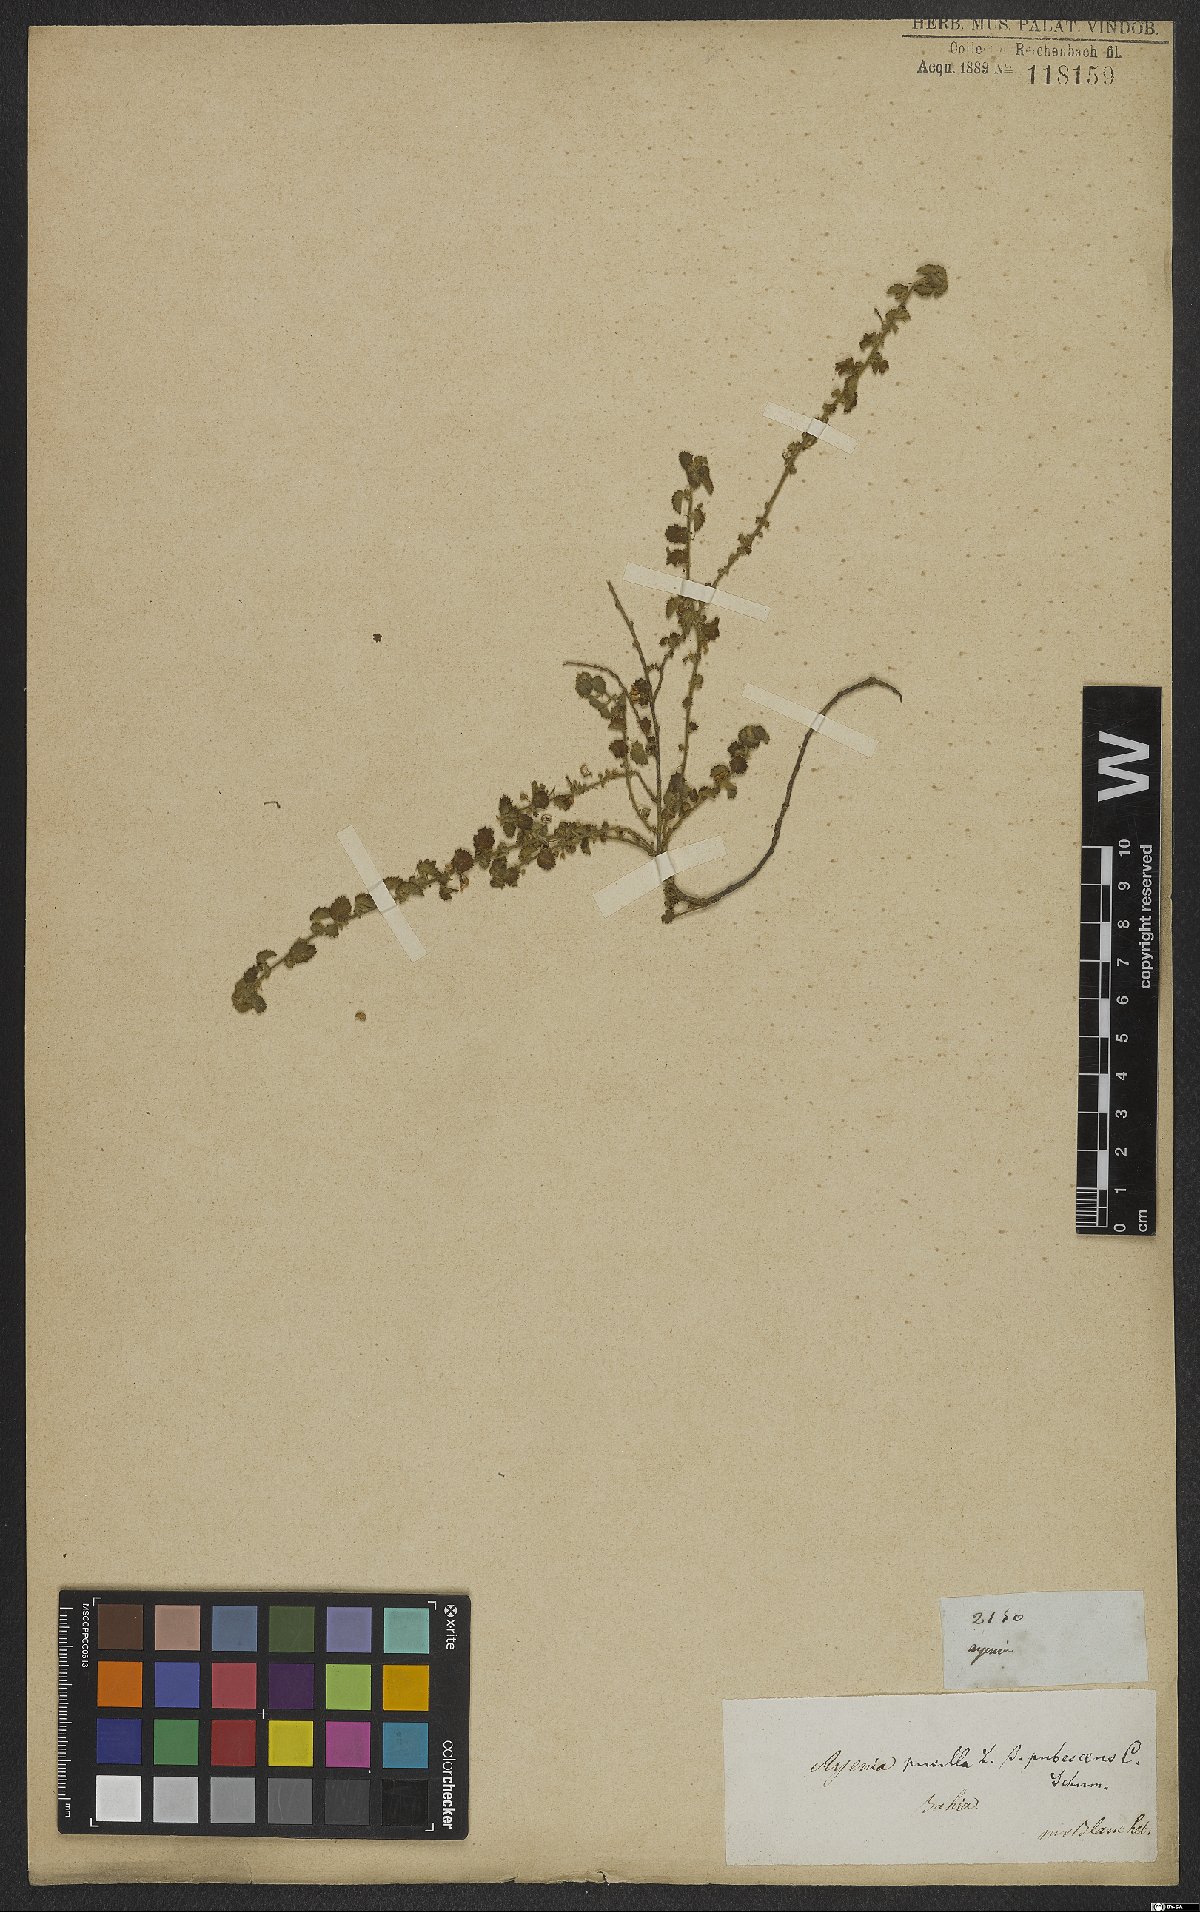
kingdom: Plantae
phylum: Tracheophyta
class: Magnoliopsida
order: Malvales
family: Malvaceae
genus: Ayenia
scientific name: Ayenia pusilla
